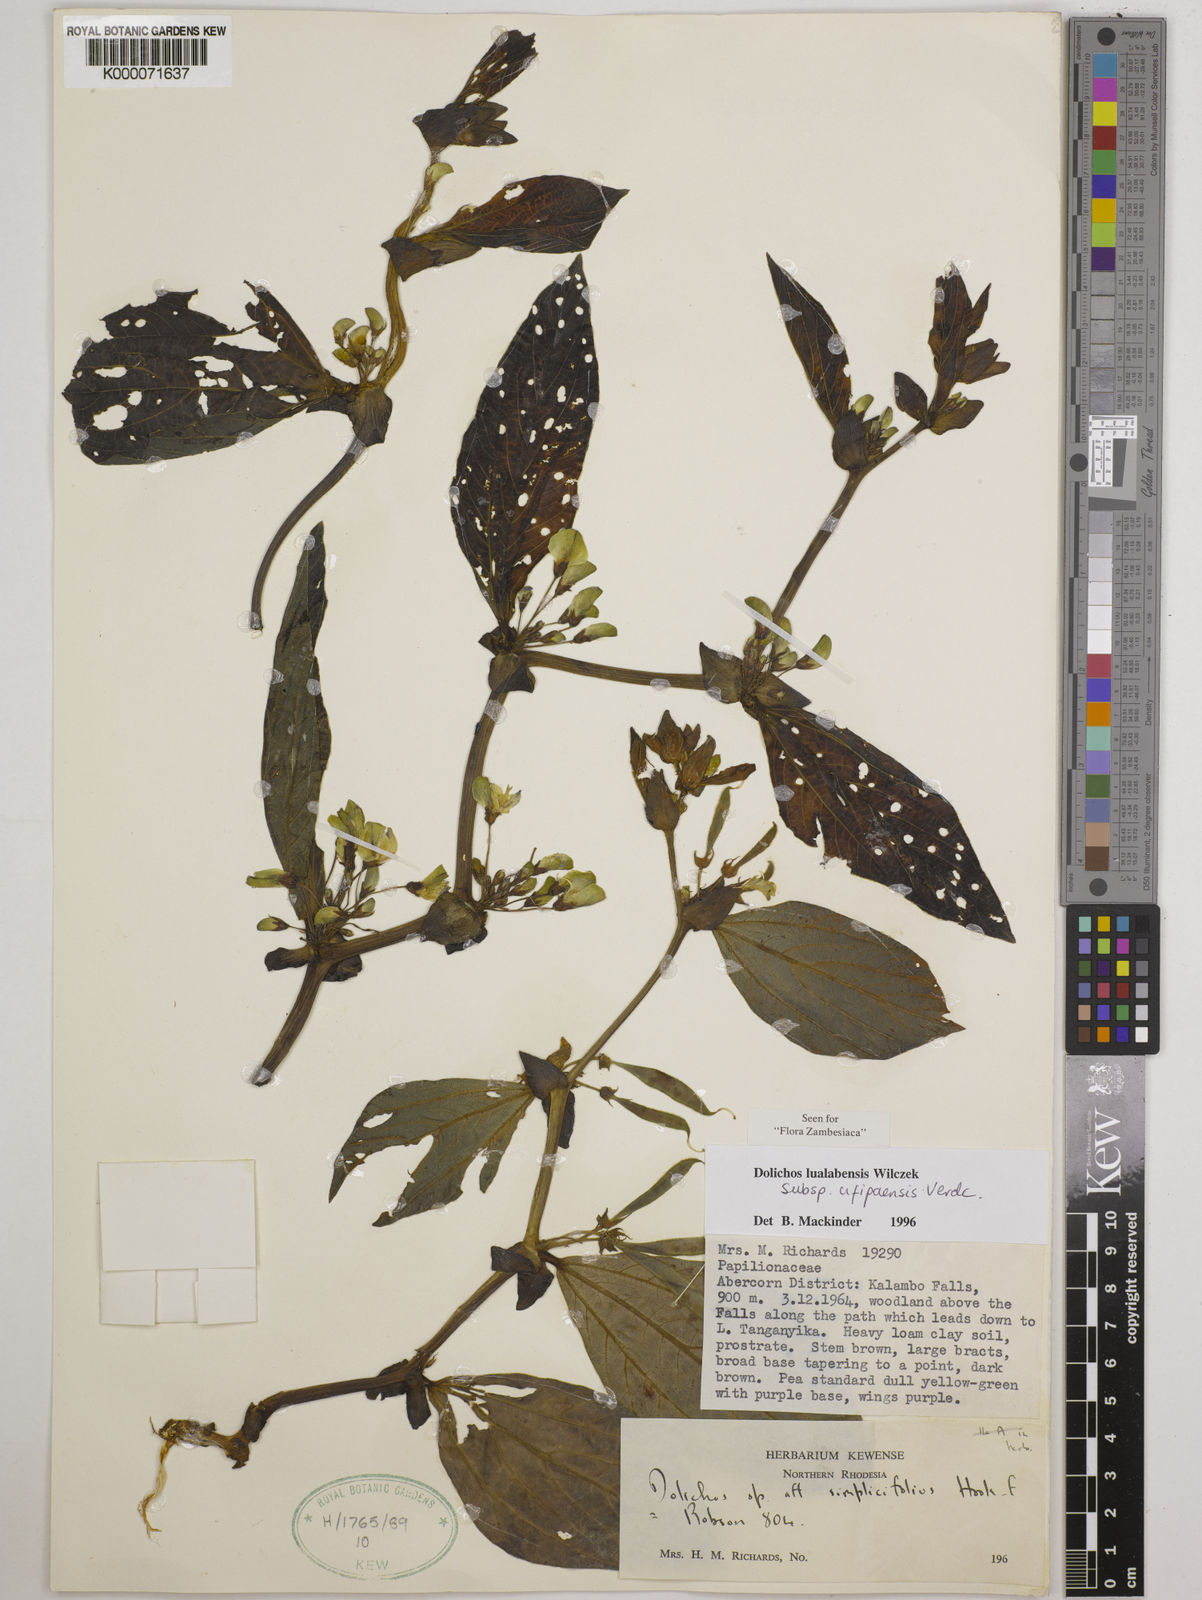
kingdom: Plantae
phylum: Tracheophyta
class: Magnoliopsida
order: Fabales
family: Fabaceae
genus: Dolichos
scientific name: Dolichos lualabensis
